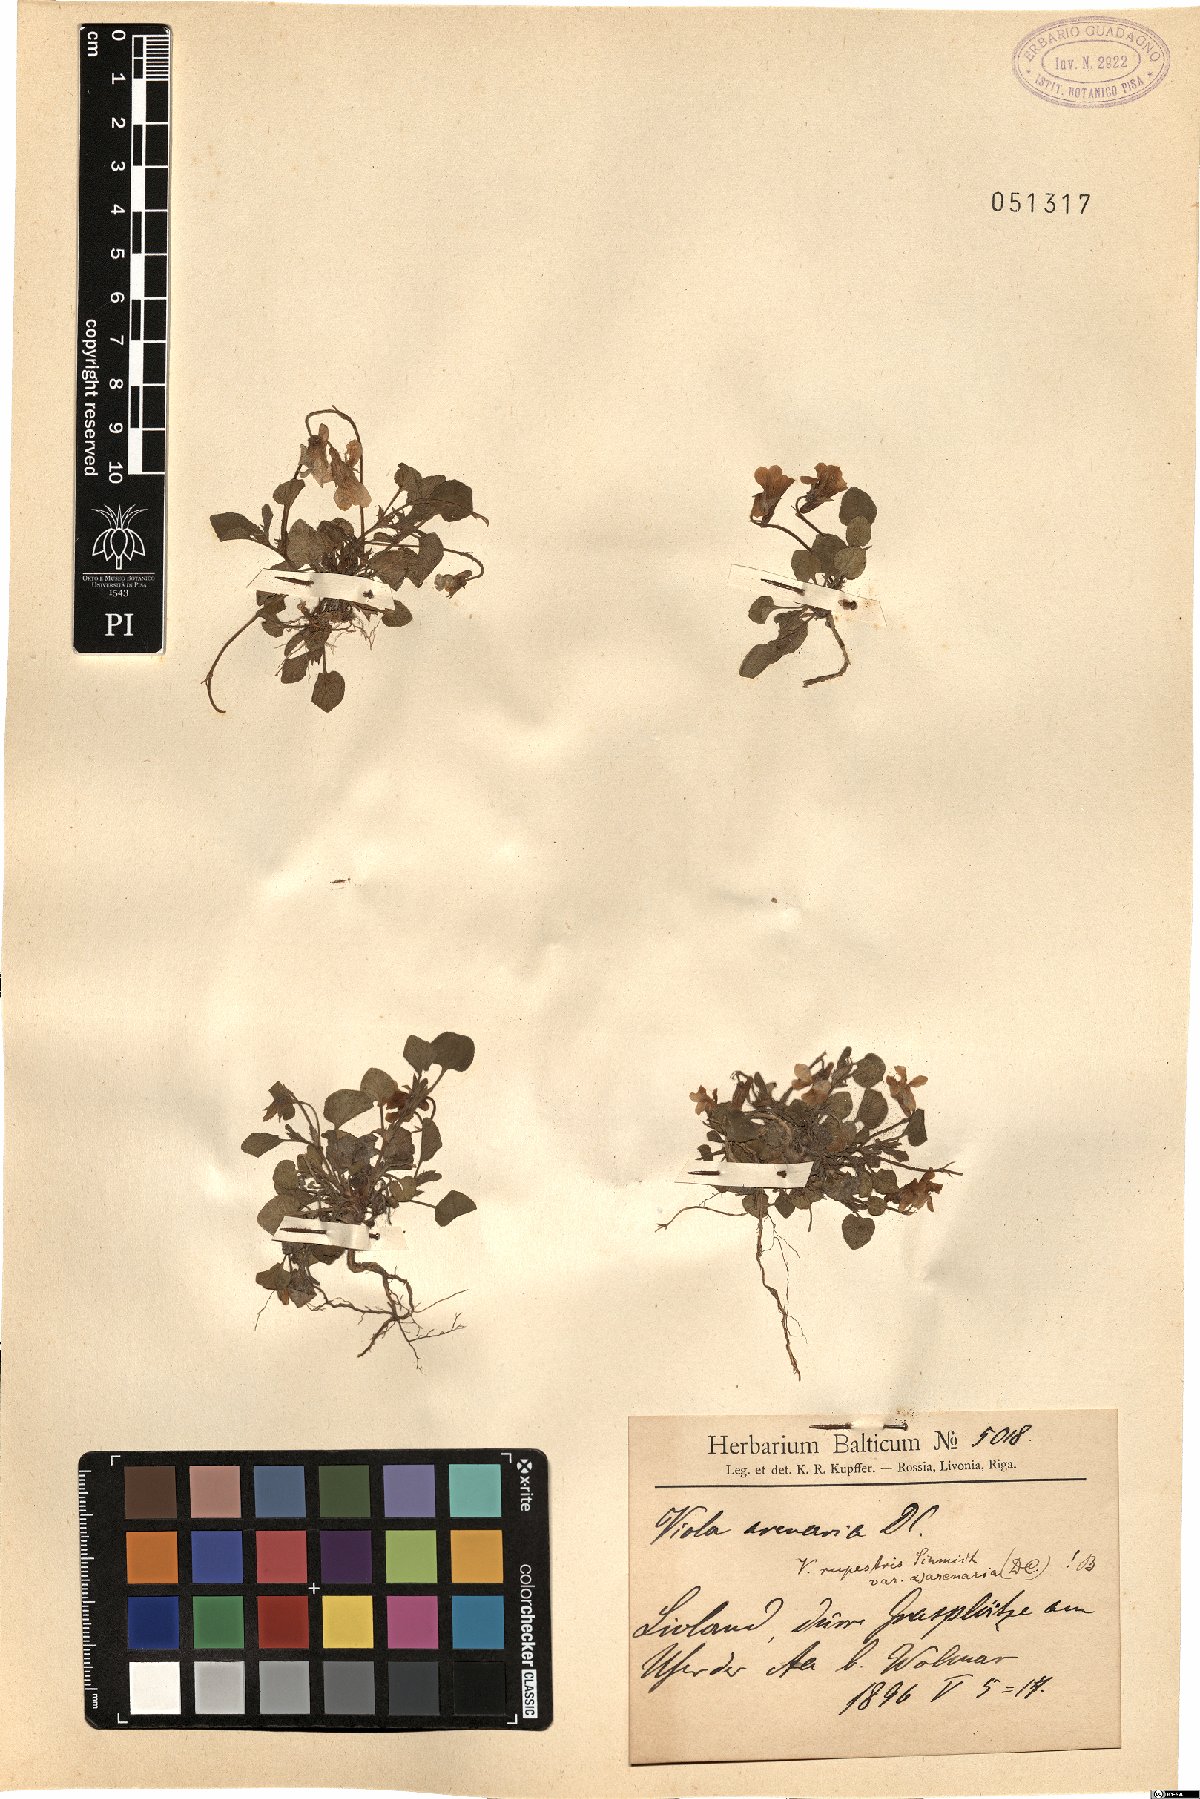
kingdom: Plantae
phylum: Tracheophyta
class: Magnoliopsida
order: Malpighiales
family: Violaceae
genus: Viola
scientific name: Viola rupestris
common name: Teesdale violet
